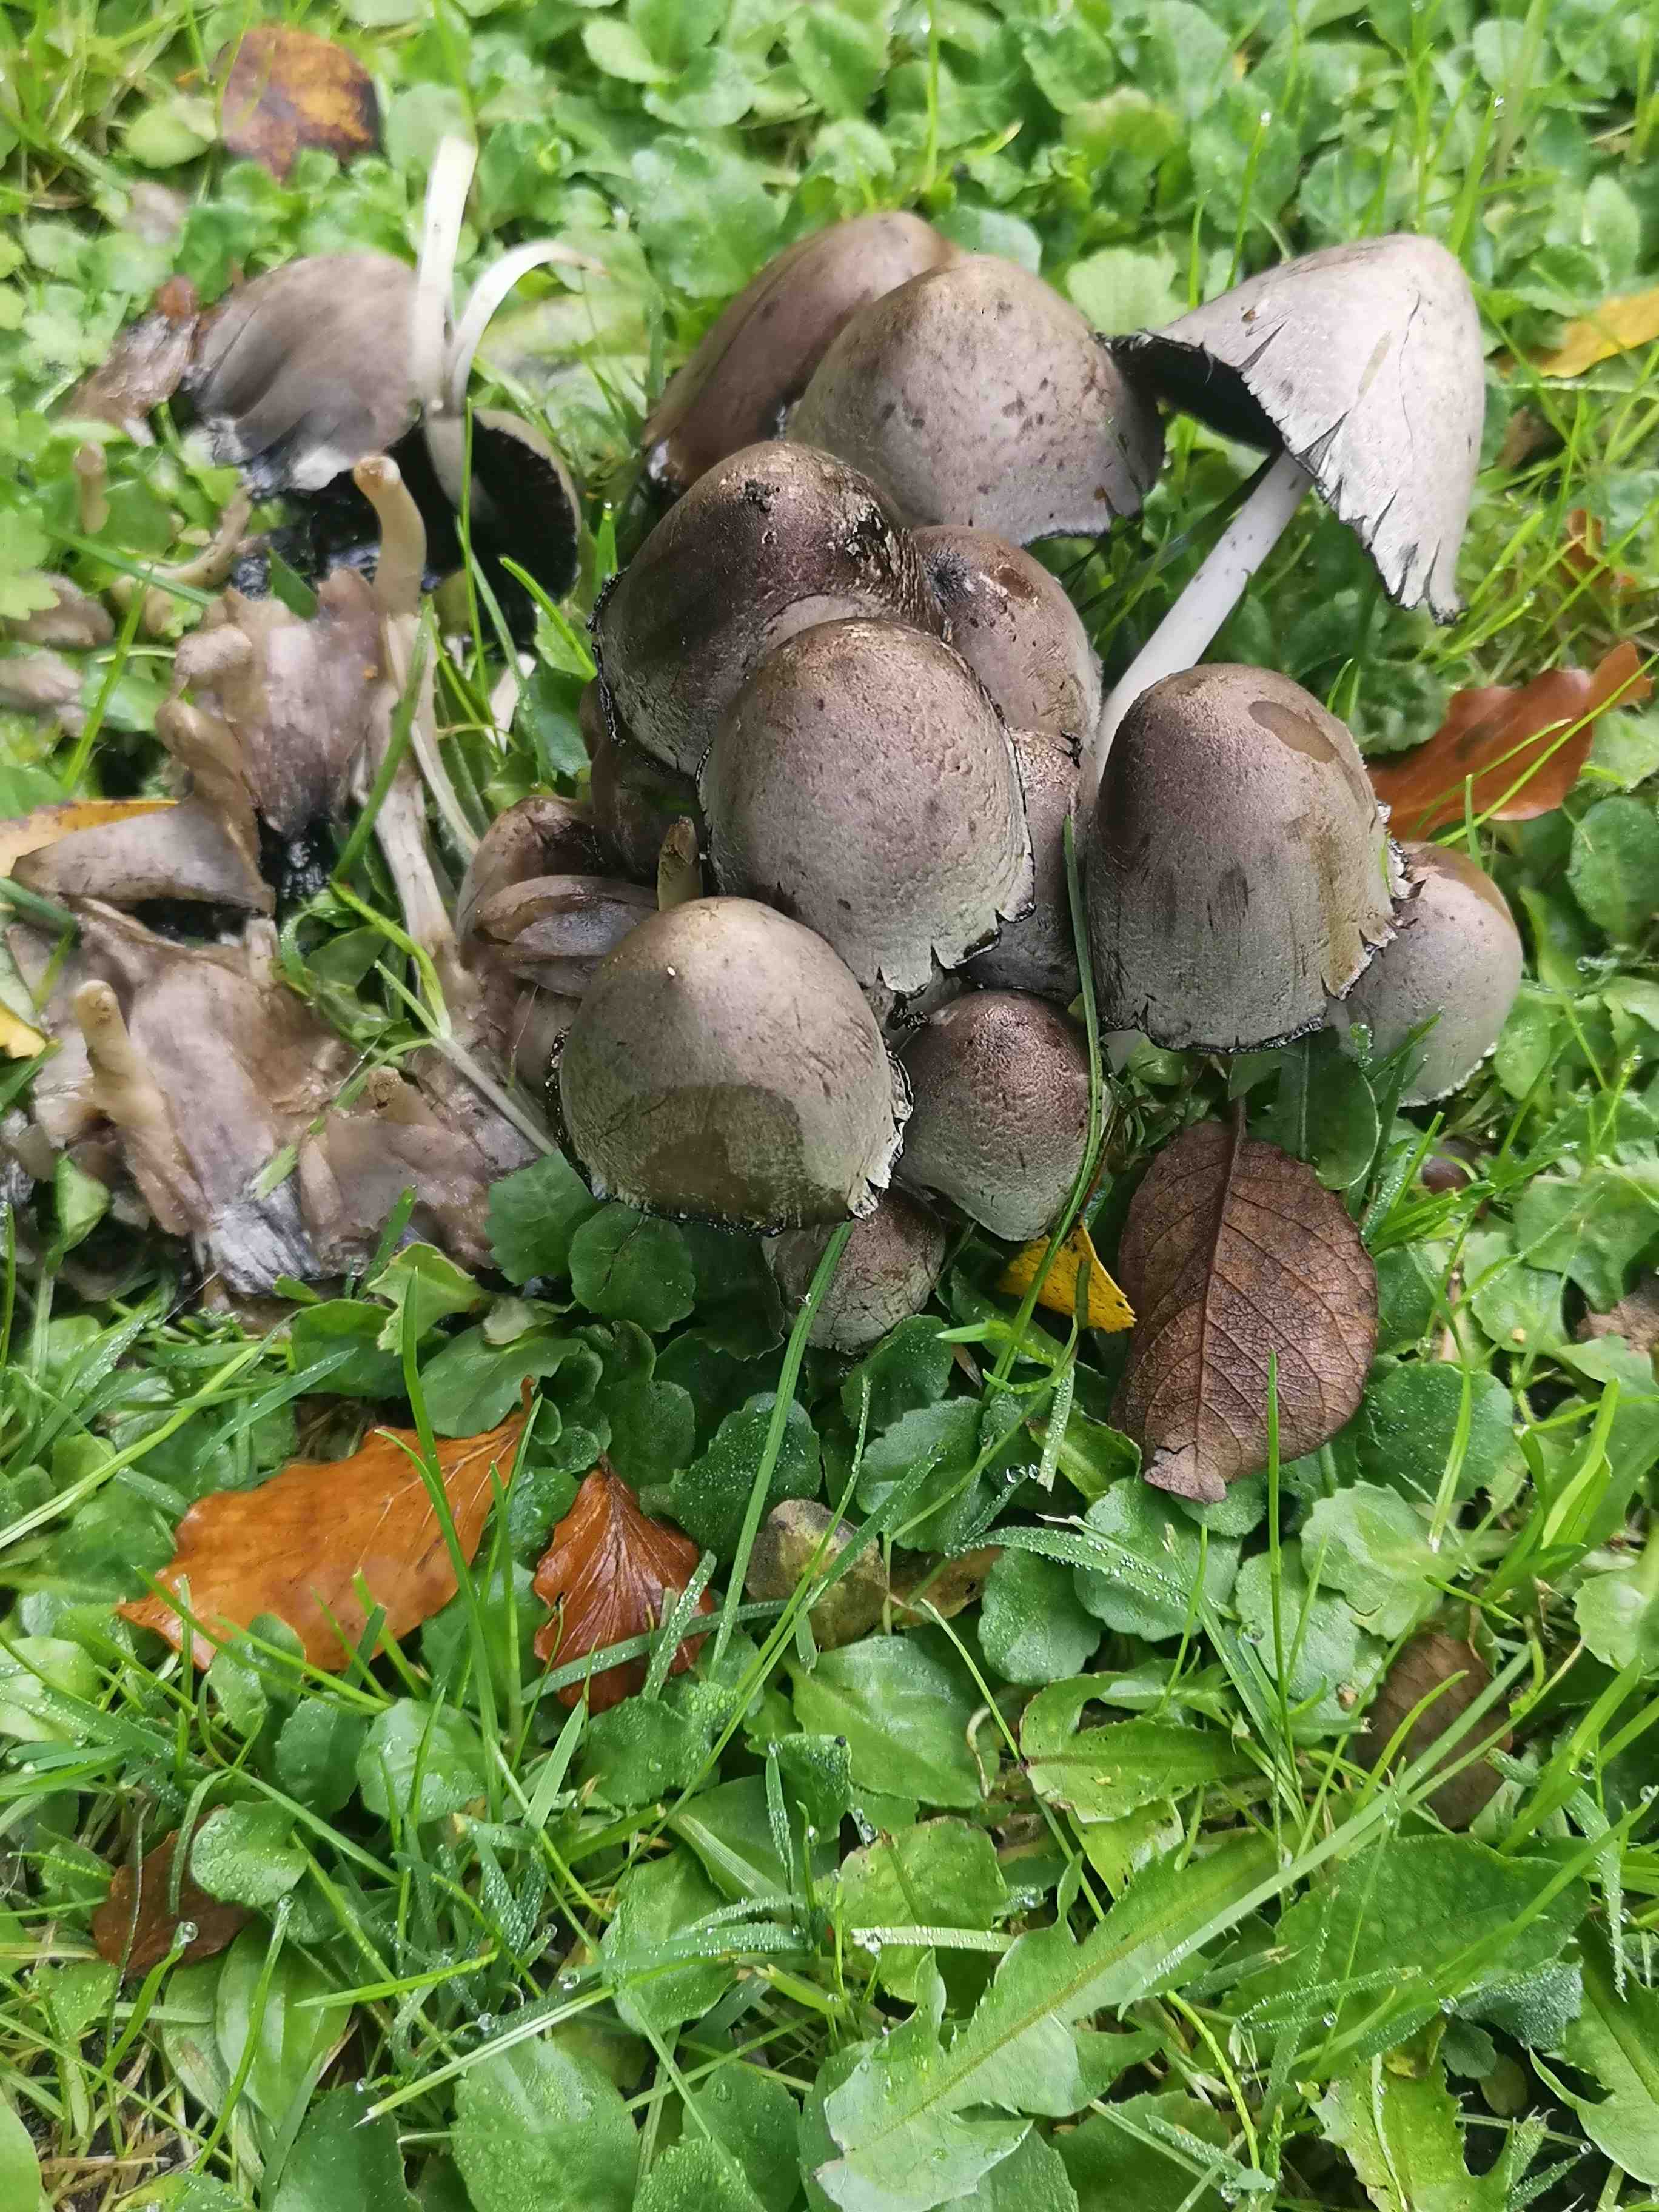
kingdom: Fungi
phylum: Basidiomycota
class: Agaricomycetes
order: Agaricales
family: Psathyrellaceae
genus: Coprinopsis
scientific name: Coprinopsis atramentaria
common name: almindelig blækhat
